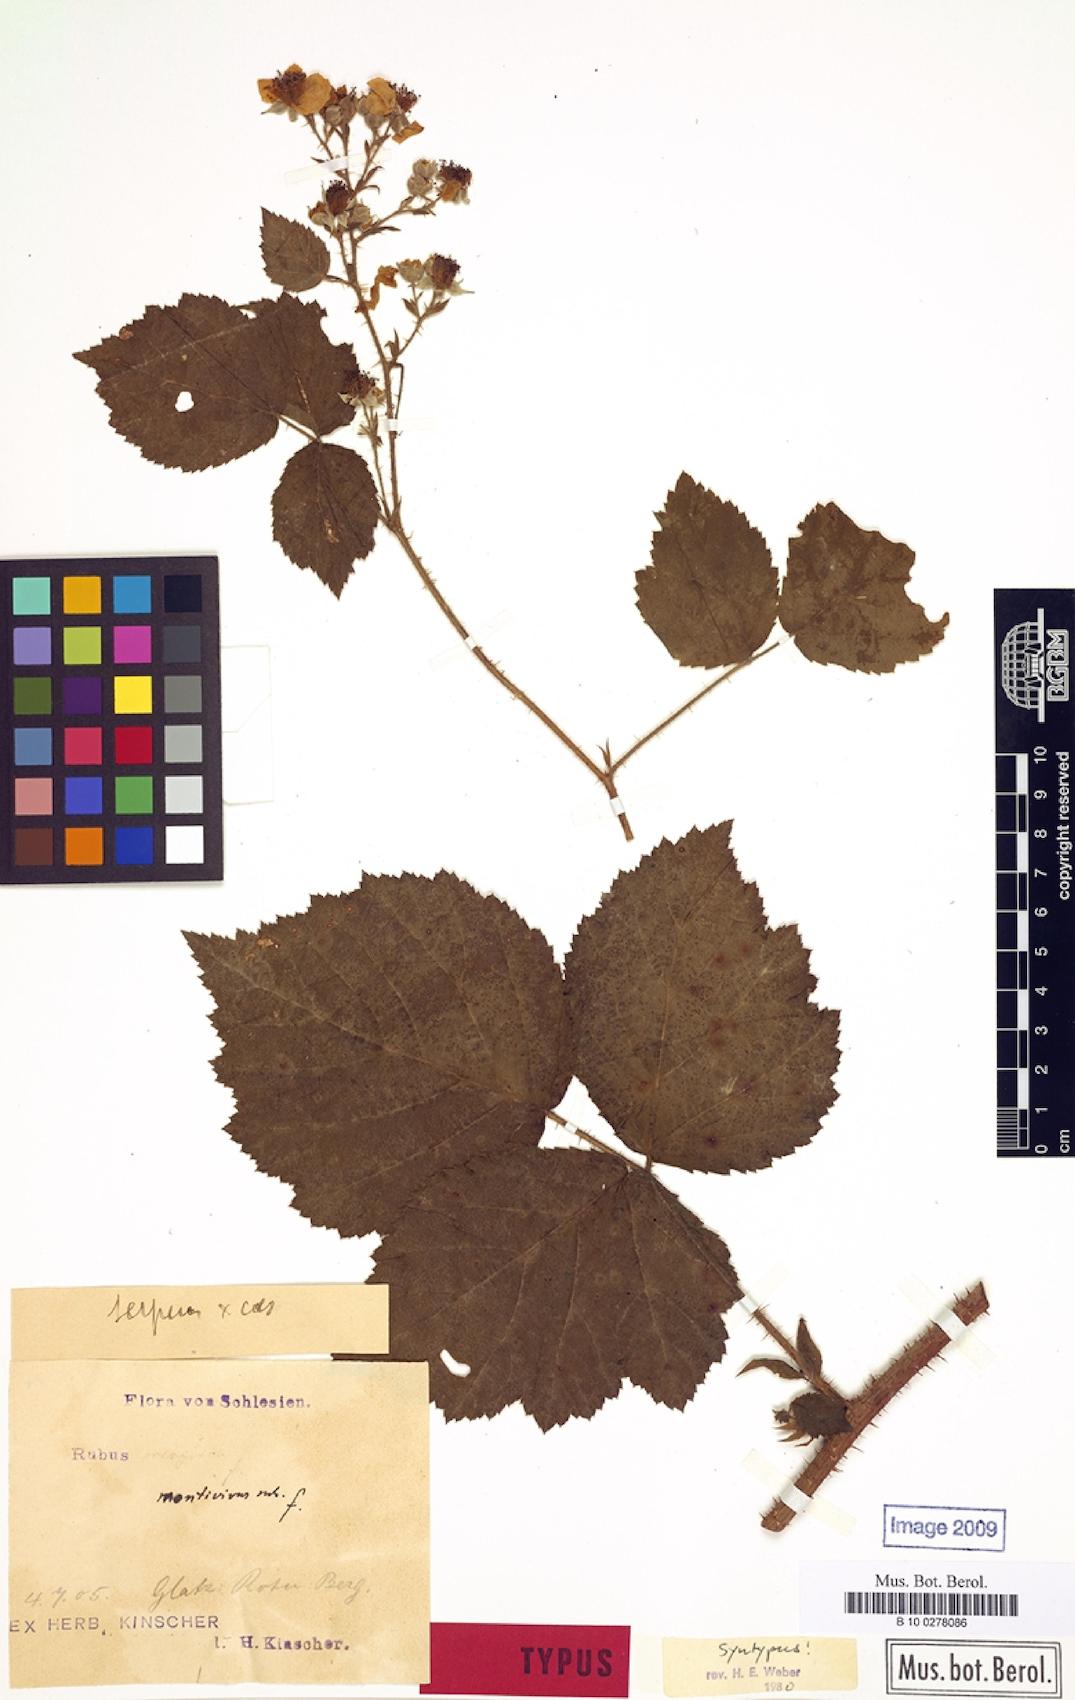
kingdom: Plantae
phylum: Tracheophyta
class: Magnoliopsida
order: Rosales
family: Rosaceae
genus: Rubus
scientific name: Rubus dollnensis
